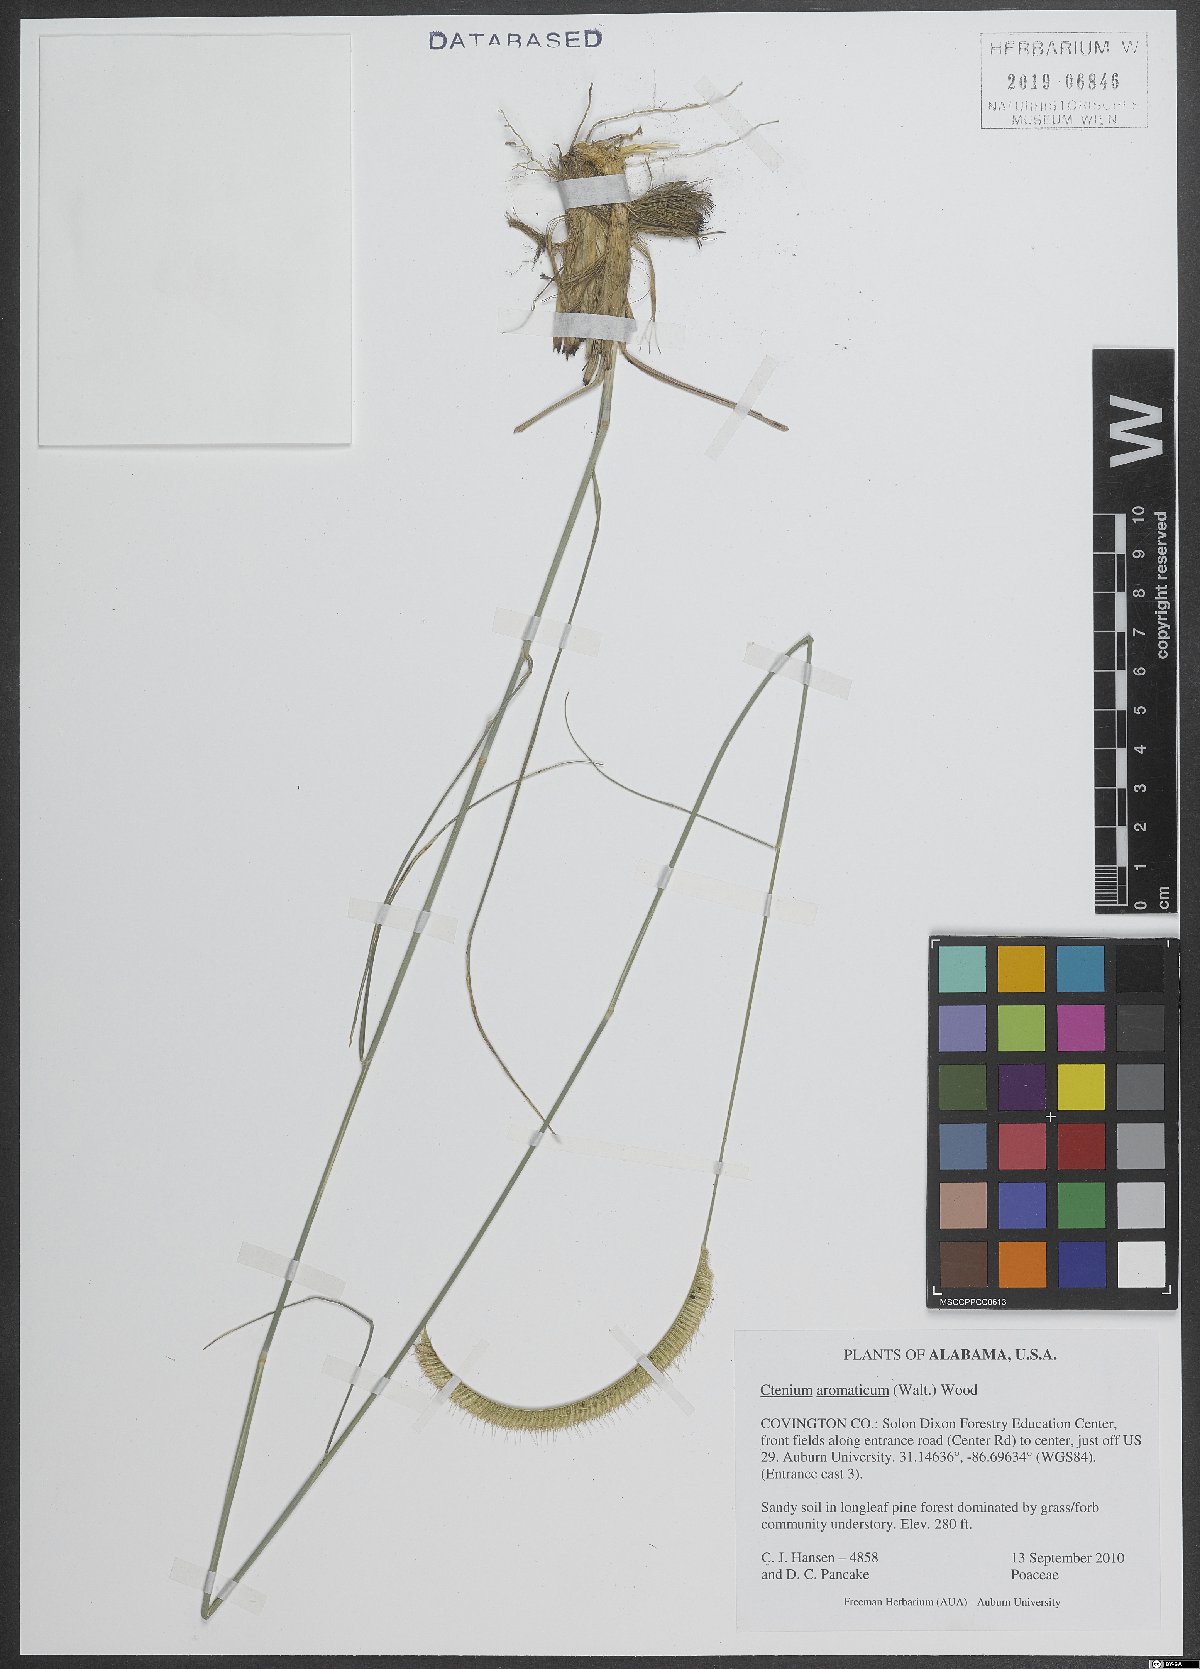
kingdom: Plantae
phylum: Tracheophyta
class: Liliopsida
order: Poales
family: Poaceae
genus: Ctenium
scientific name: Ctenium aromaticum
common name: Toothache grass
